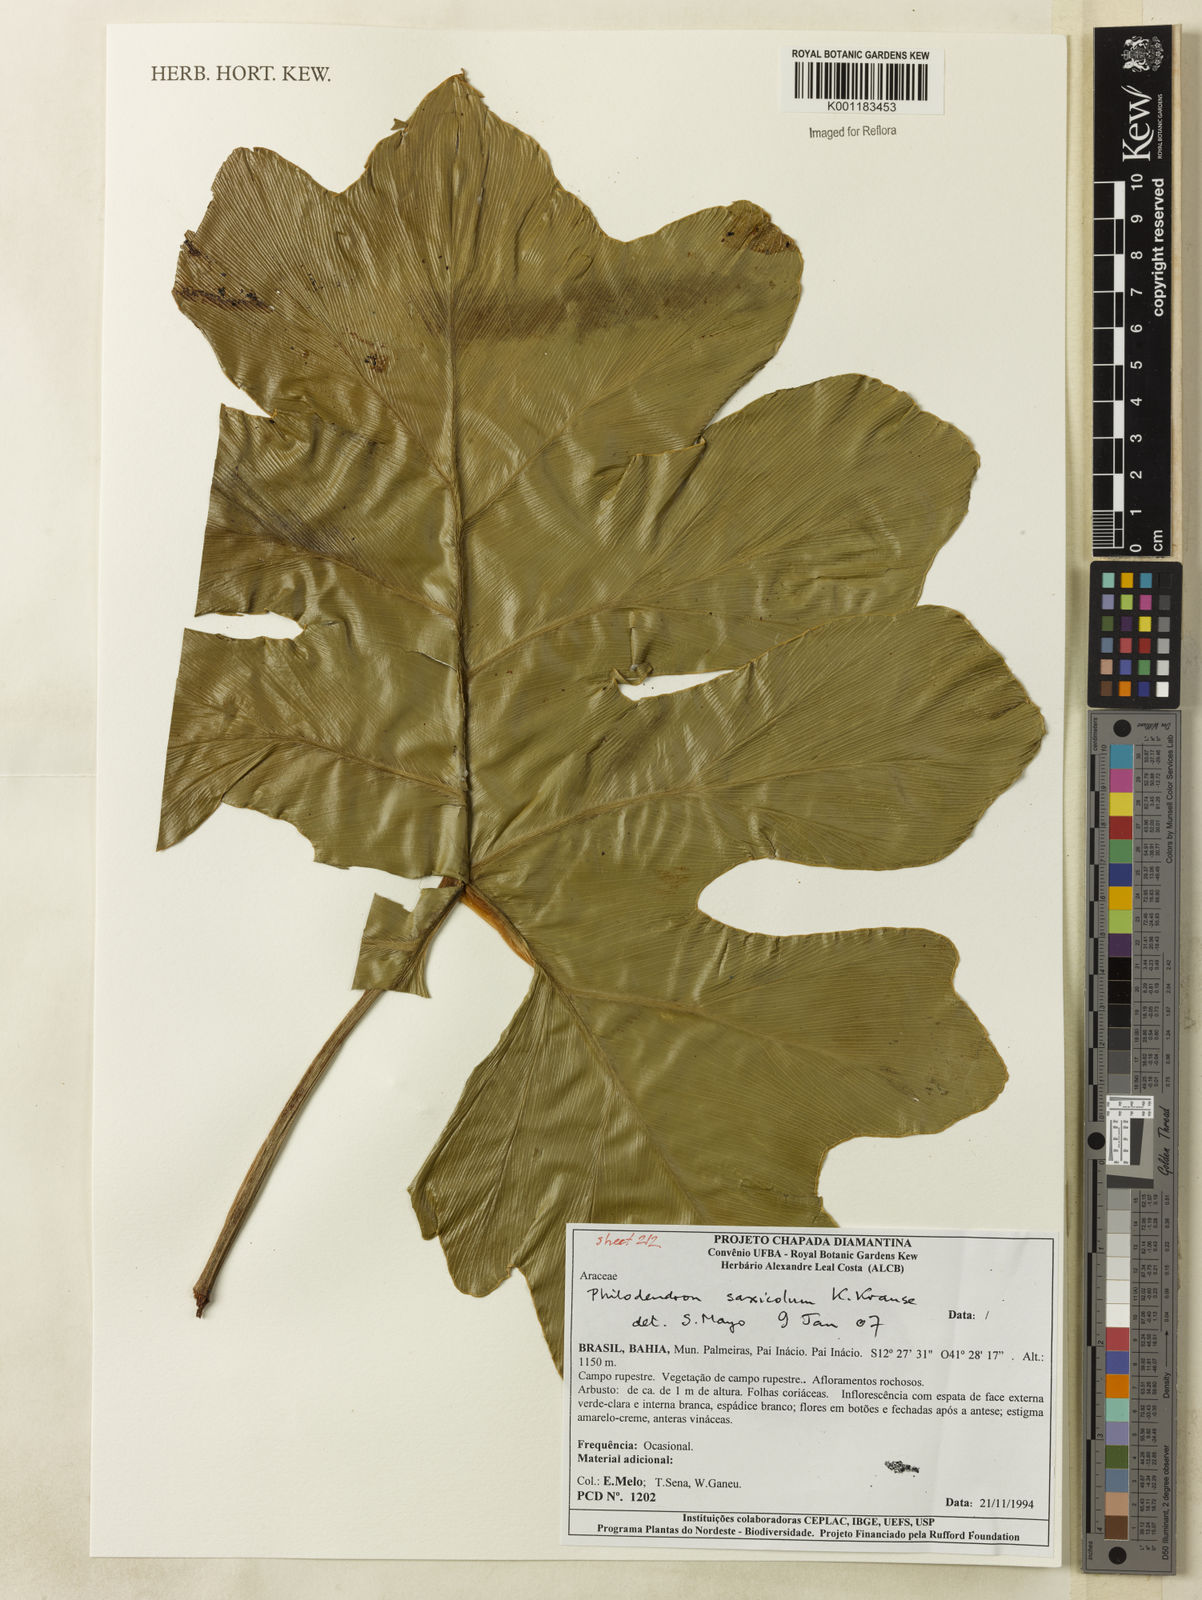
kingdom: Plantae
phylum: Tracheophyta
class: Liliopsida
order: Alismatales
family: Araceae
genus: Thaumatophyllum
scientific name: Thaumatophyllum saxicola
